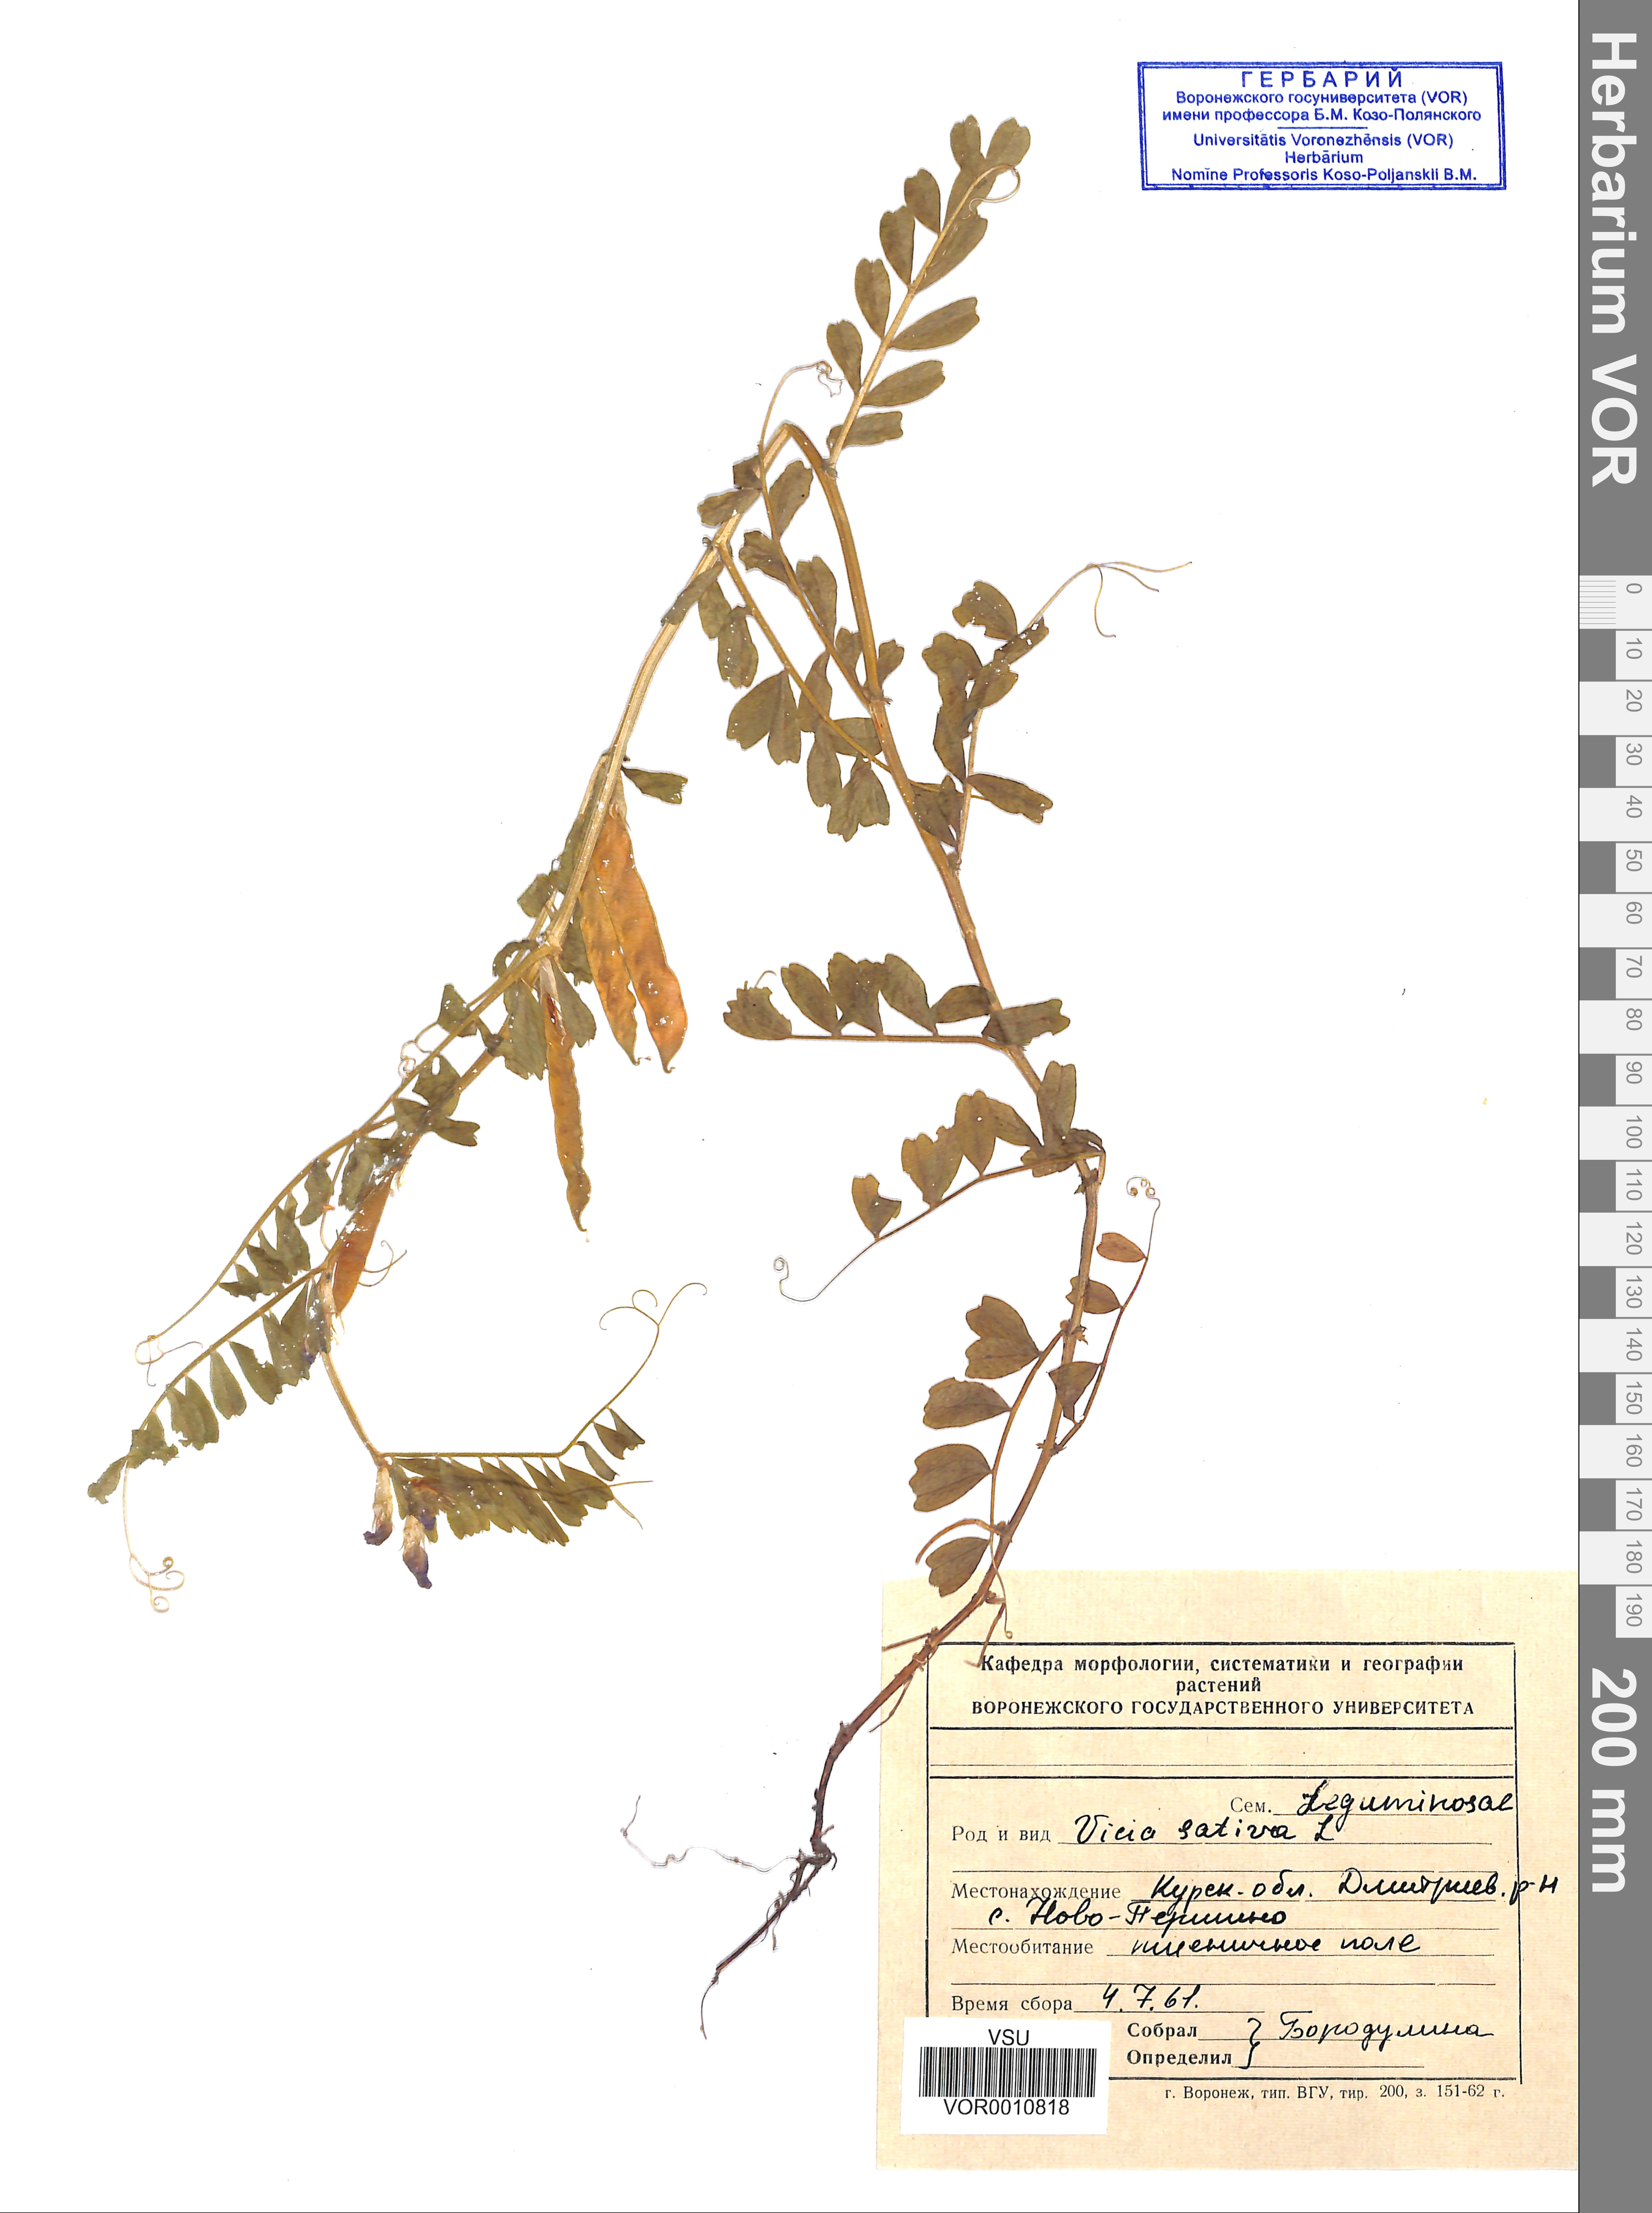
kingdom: Plantae
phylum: Tracheophyta
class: Magnoliopsida
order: Fabales
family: Fabaceae
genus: Vicia
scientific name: Vicia sativa
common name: Garden vetch
